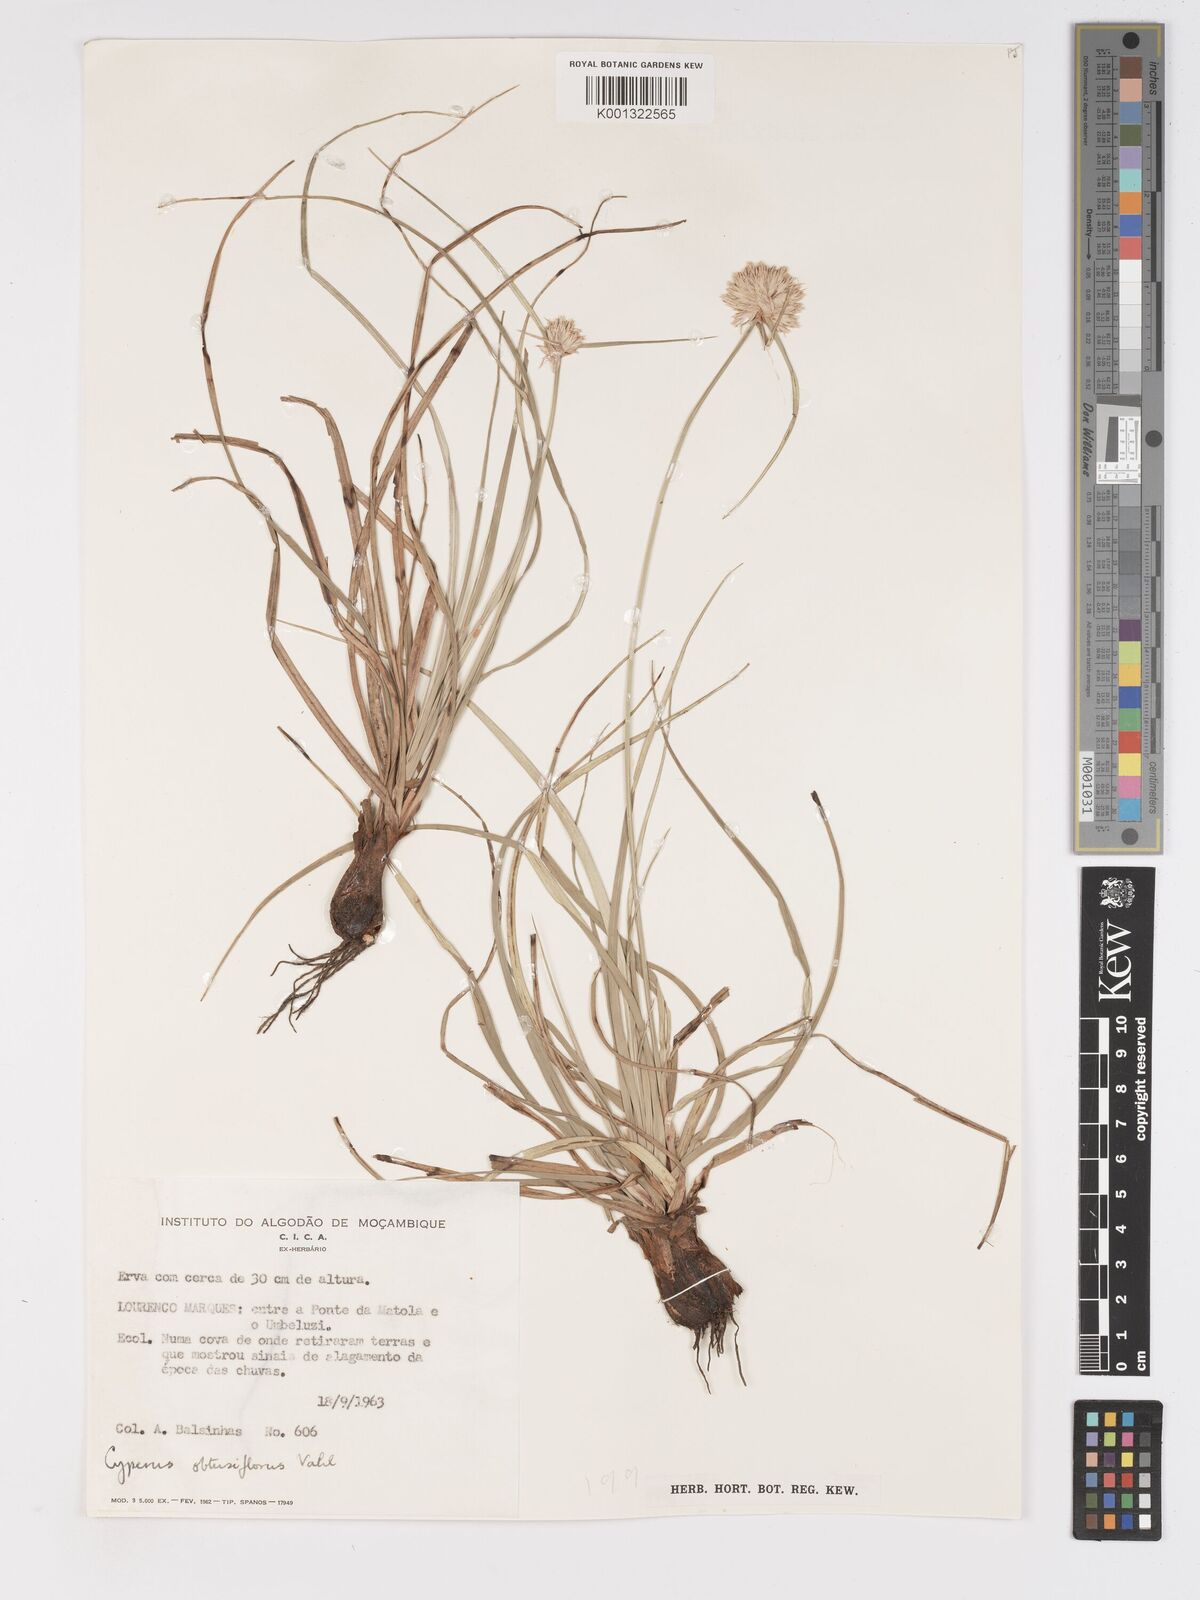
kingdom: Plantae
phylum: Tracheophyta
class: Liliopsida
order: Poales
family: Cyperaceae
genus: Cyperus
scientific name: Cyperus niveus
